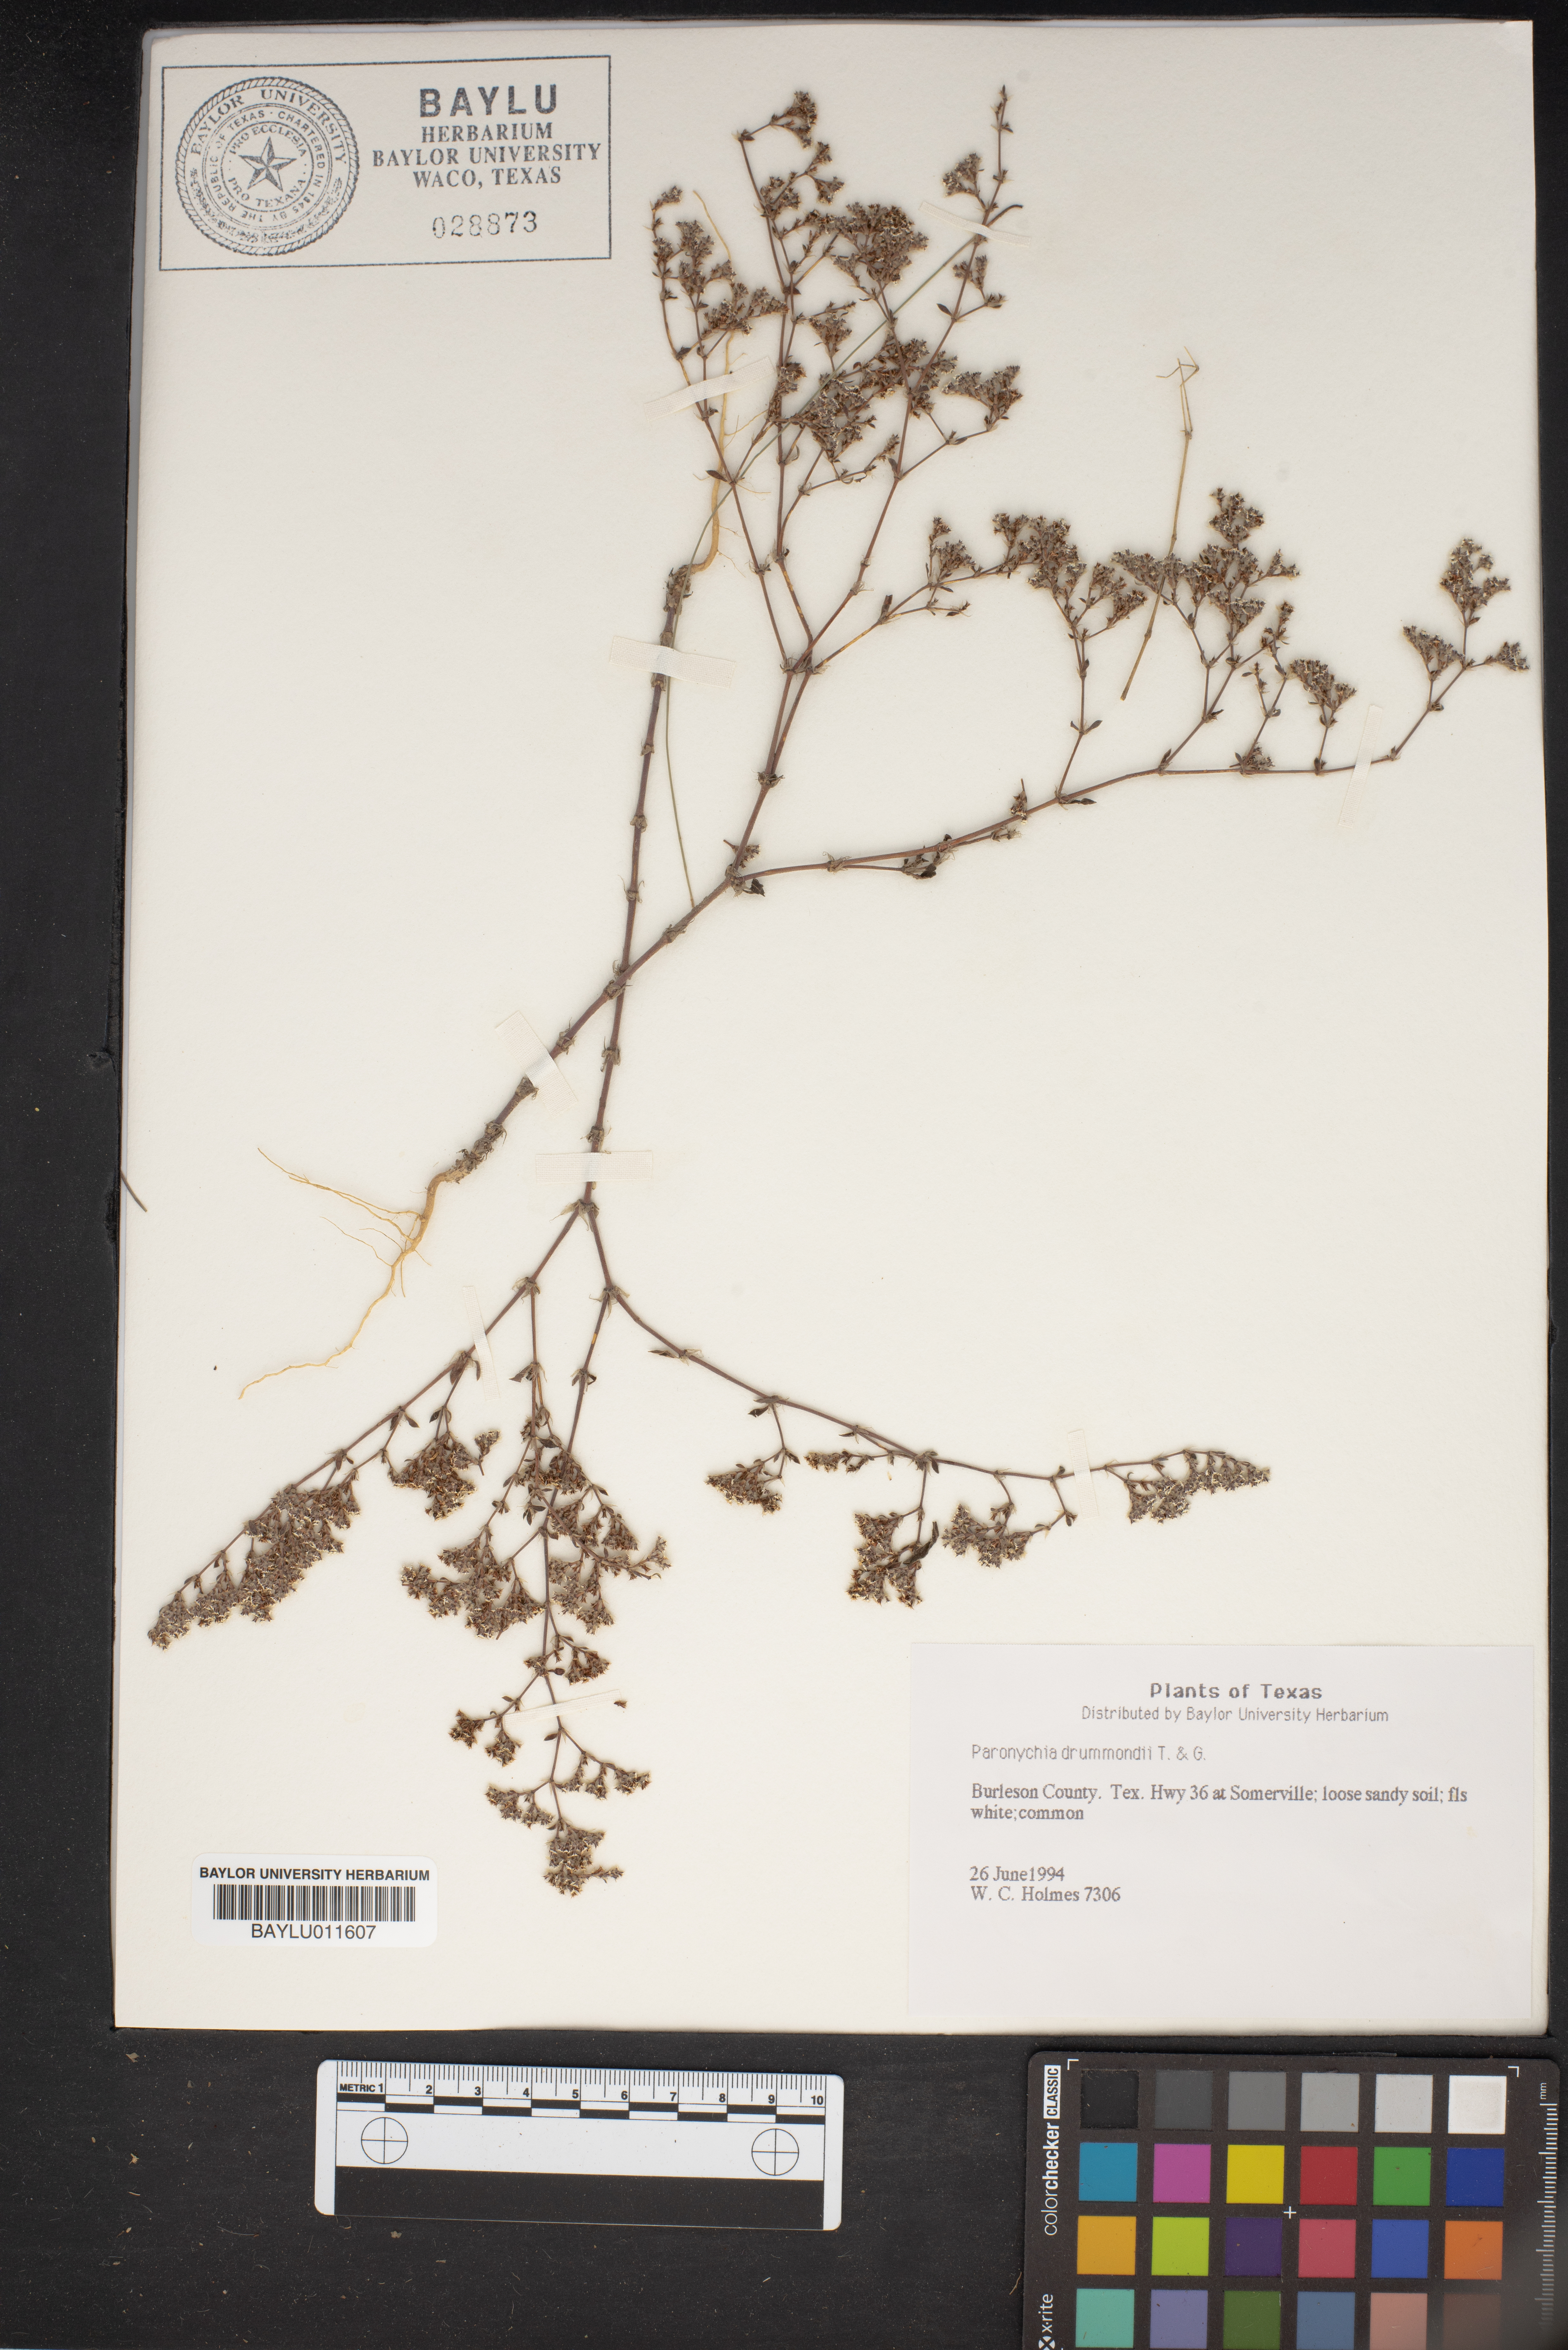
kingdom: Plantae
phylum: Tracheophyta
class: Magnoliopsida
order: Caryophyllales
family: Caryophyllaceae
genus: Paronychia
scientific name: Paronychia drummondii
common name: Drummond's nailwort
